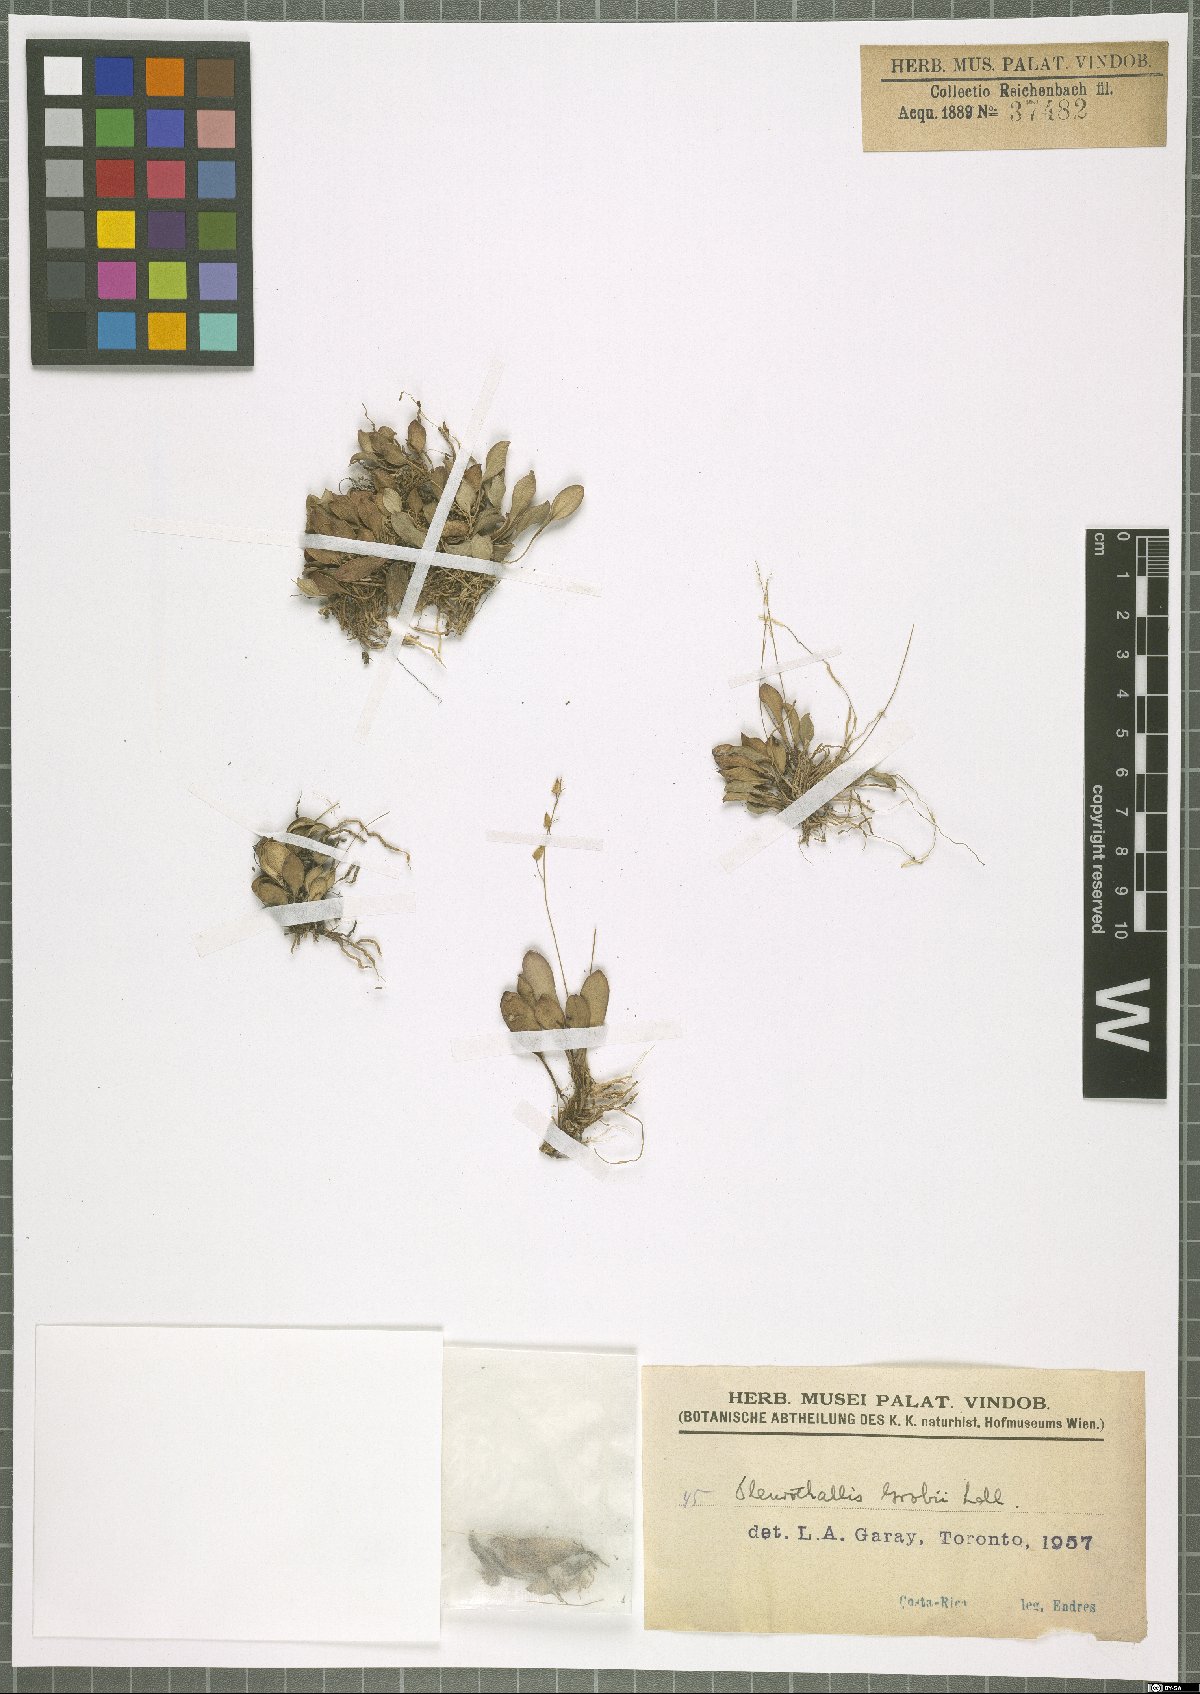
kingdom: Plantae
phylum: Tracheophyta
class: Liliopsida
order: Asparagales
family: Orchidaceae
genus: Specklinia
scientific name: Specklinia grobyi
